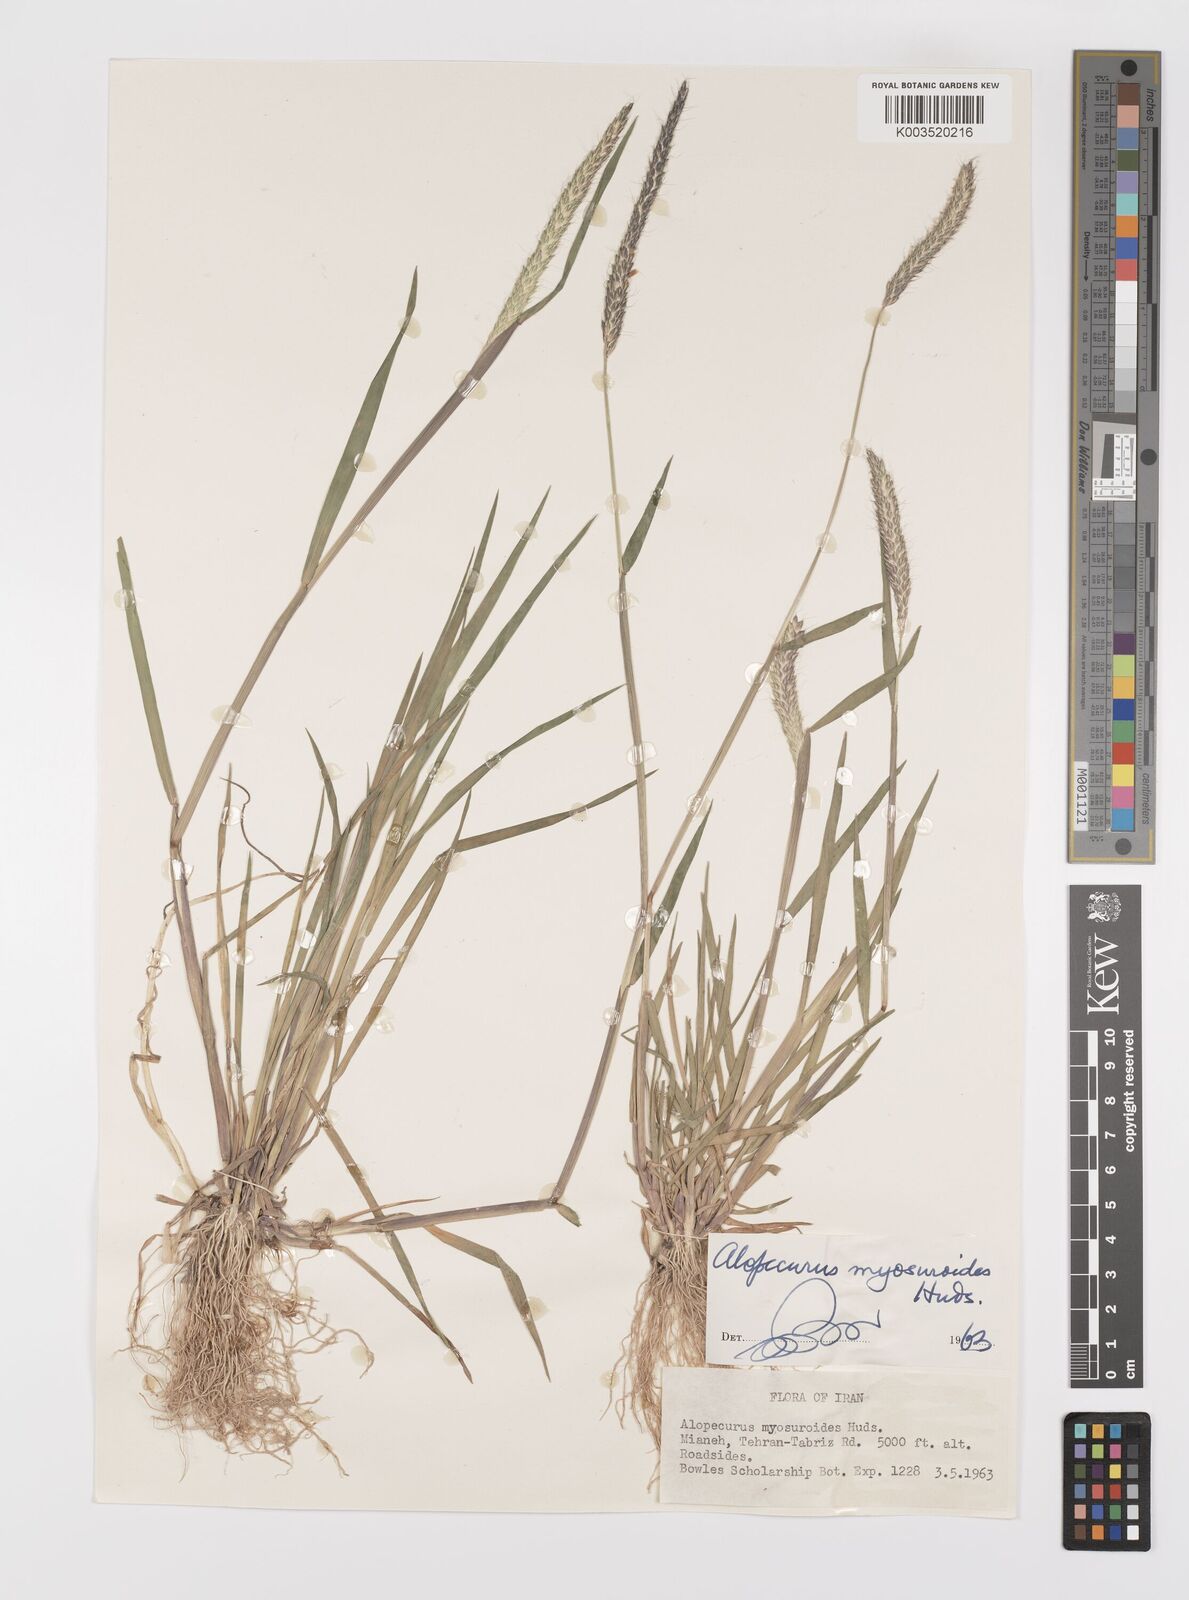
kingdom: Plantae
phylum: Tracheophyta
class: Liliopsida
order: Poales
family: Poaceae
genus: Alopecurus
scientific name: Alopecurus myosuroides
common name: Black-grass
